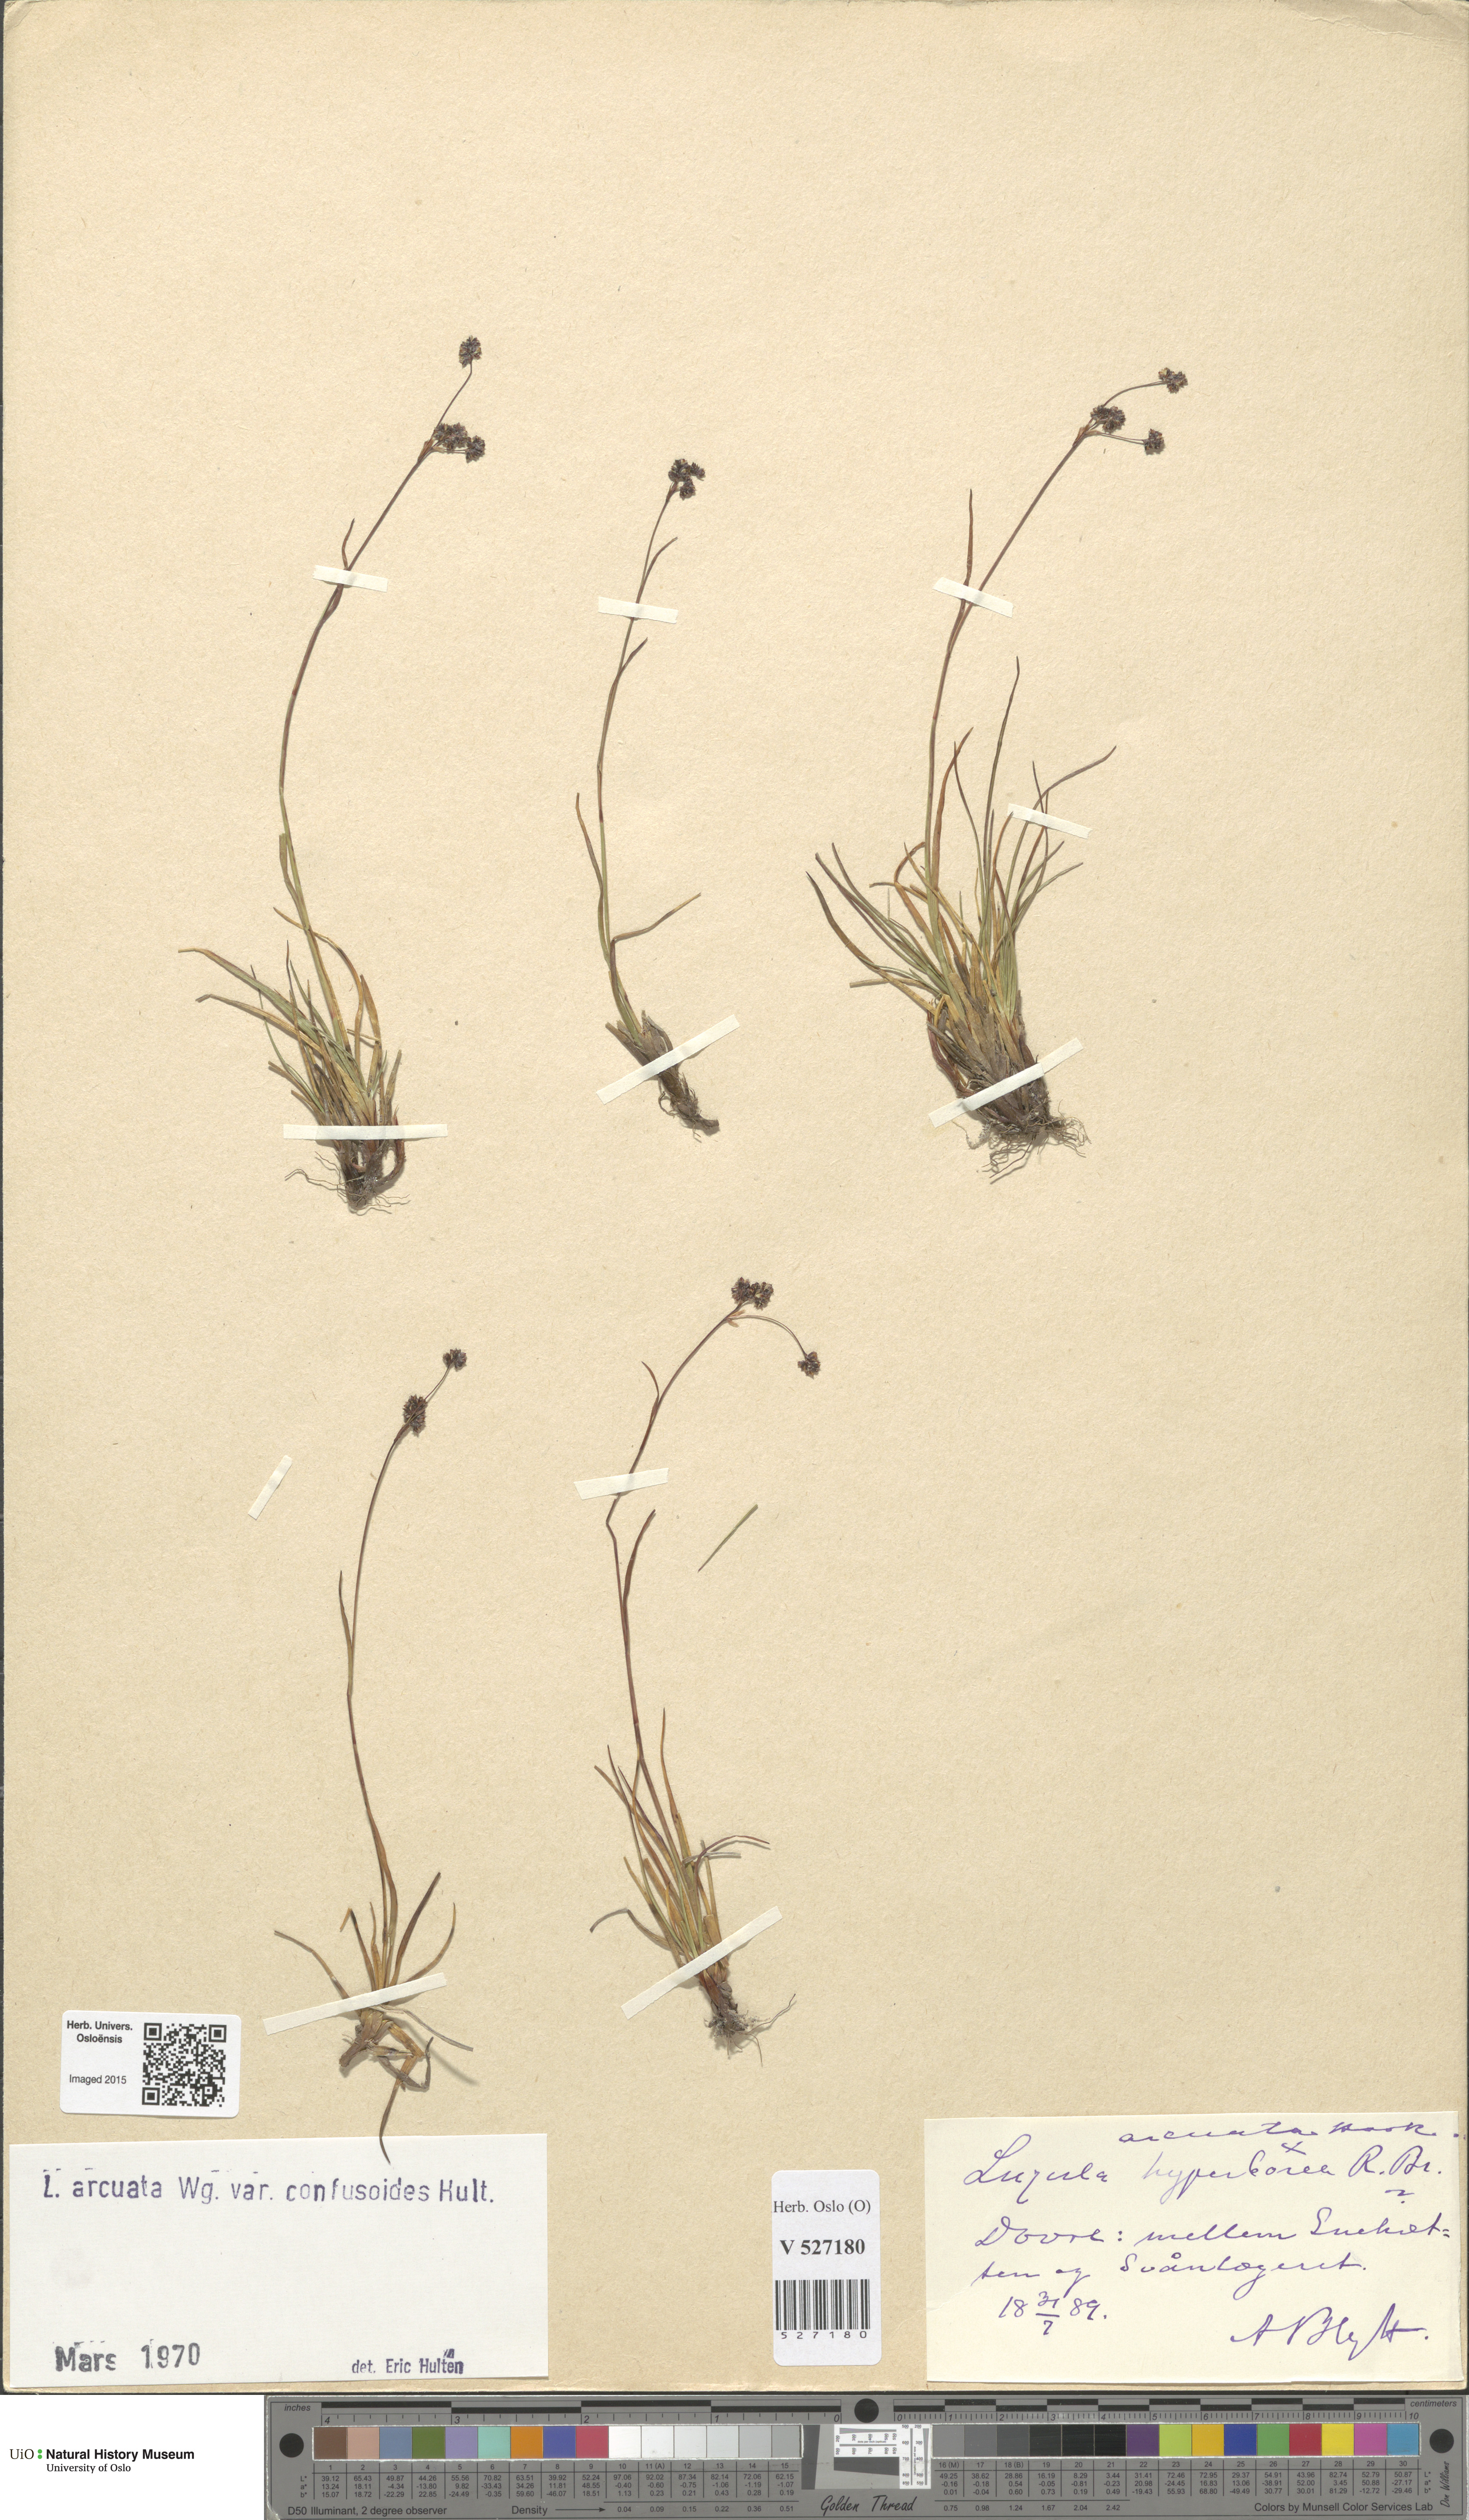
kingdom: Plantae
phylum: Tracheophyta
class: Liliopsida
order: Poales
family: Juncaceae
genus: Luzula
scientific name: Luzula arcuata
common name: Curved wood-rush
